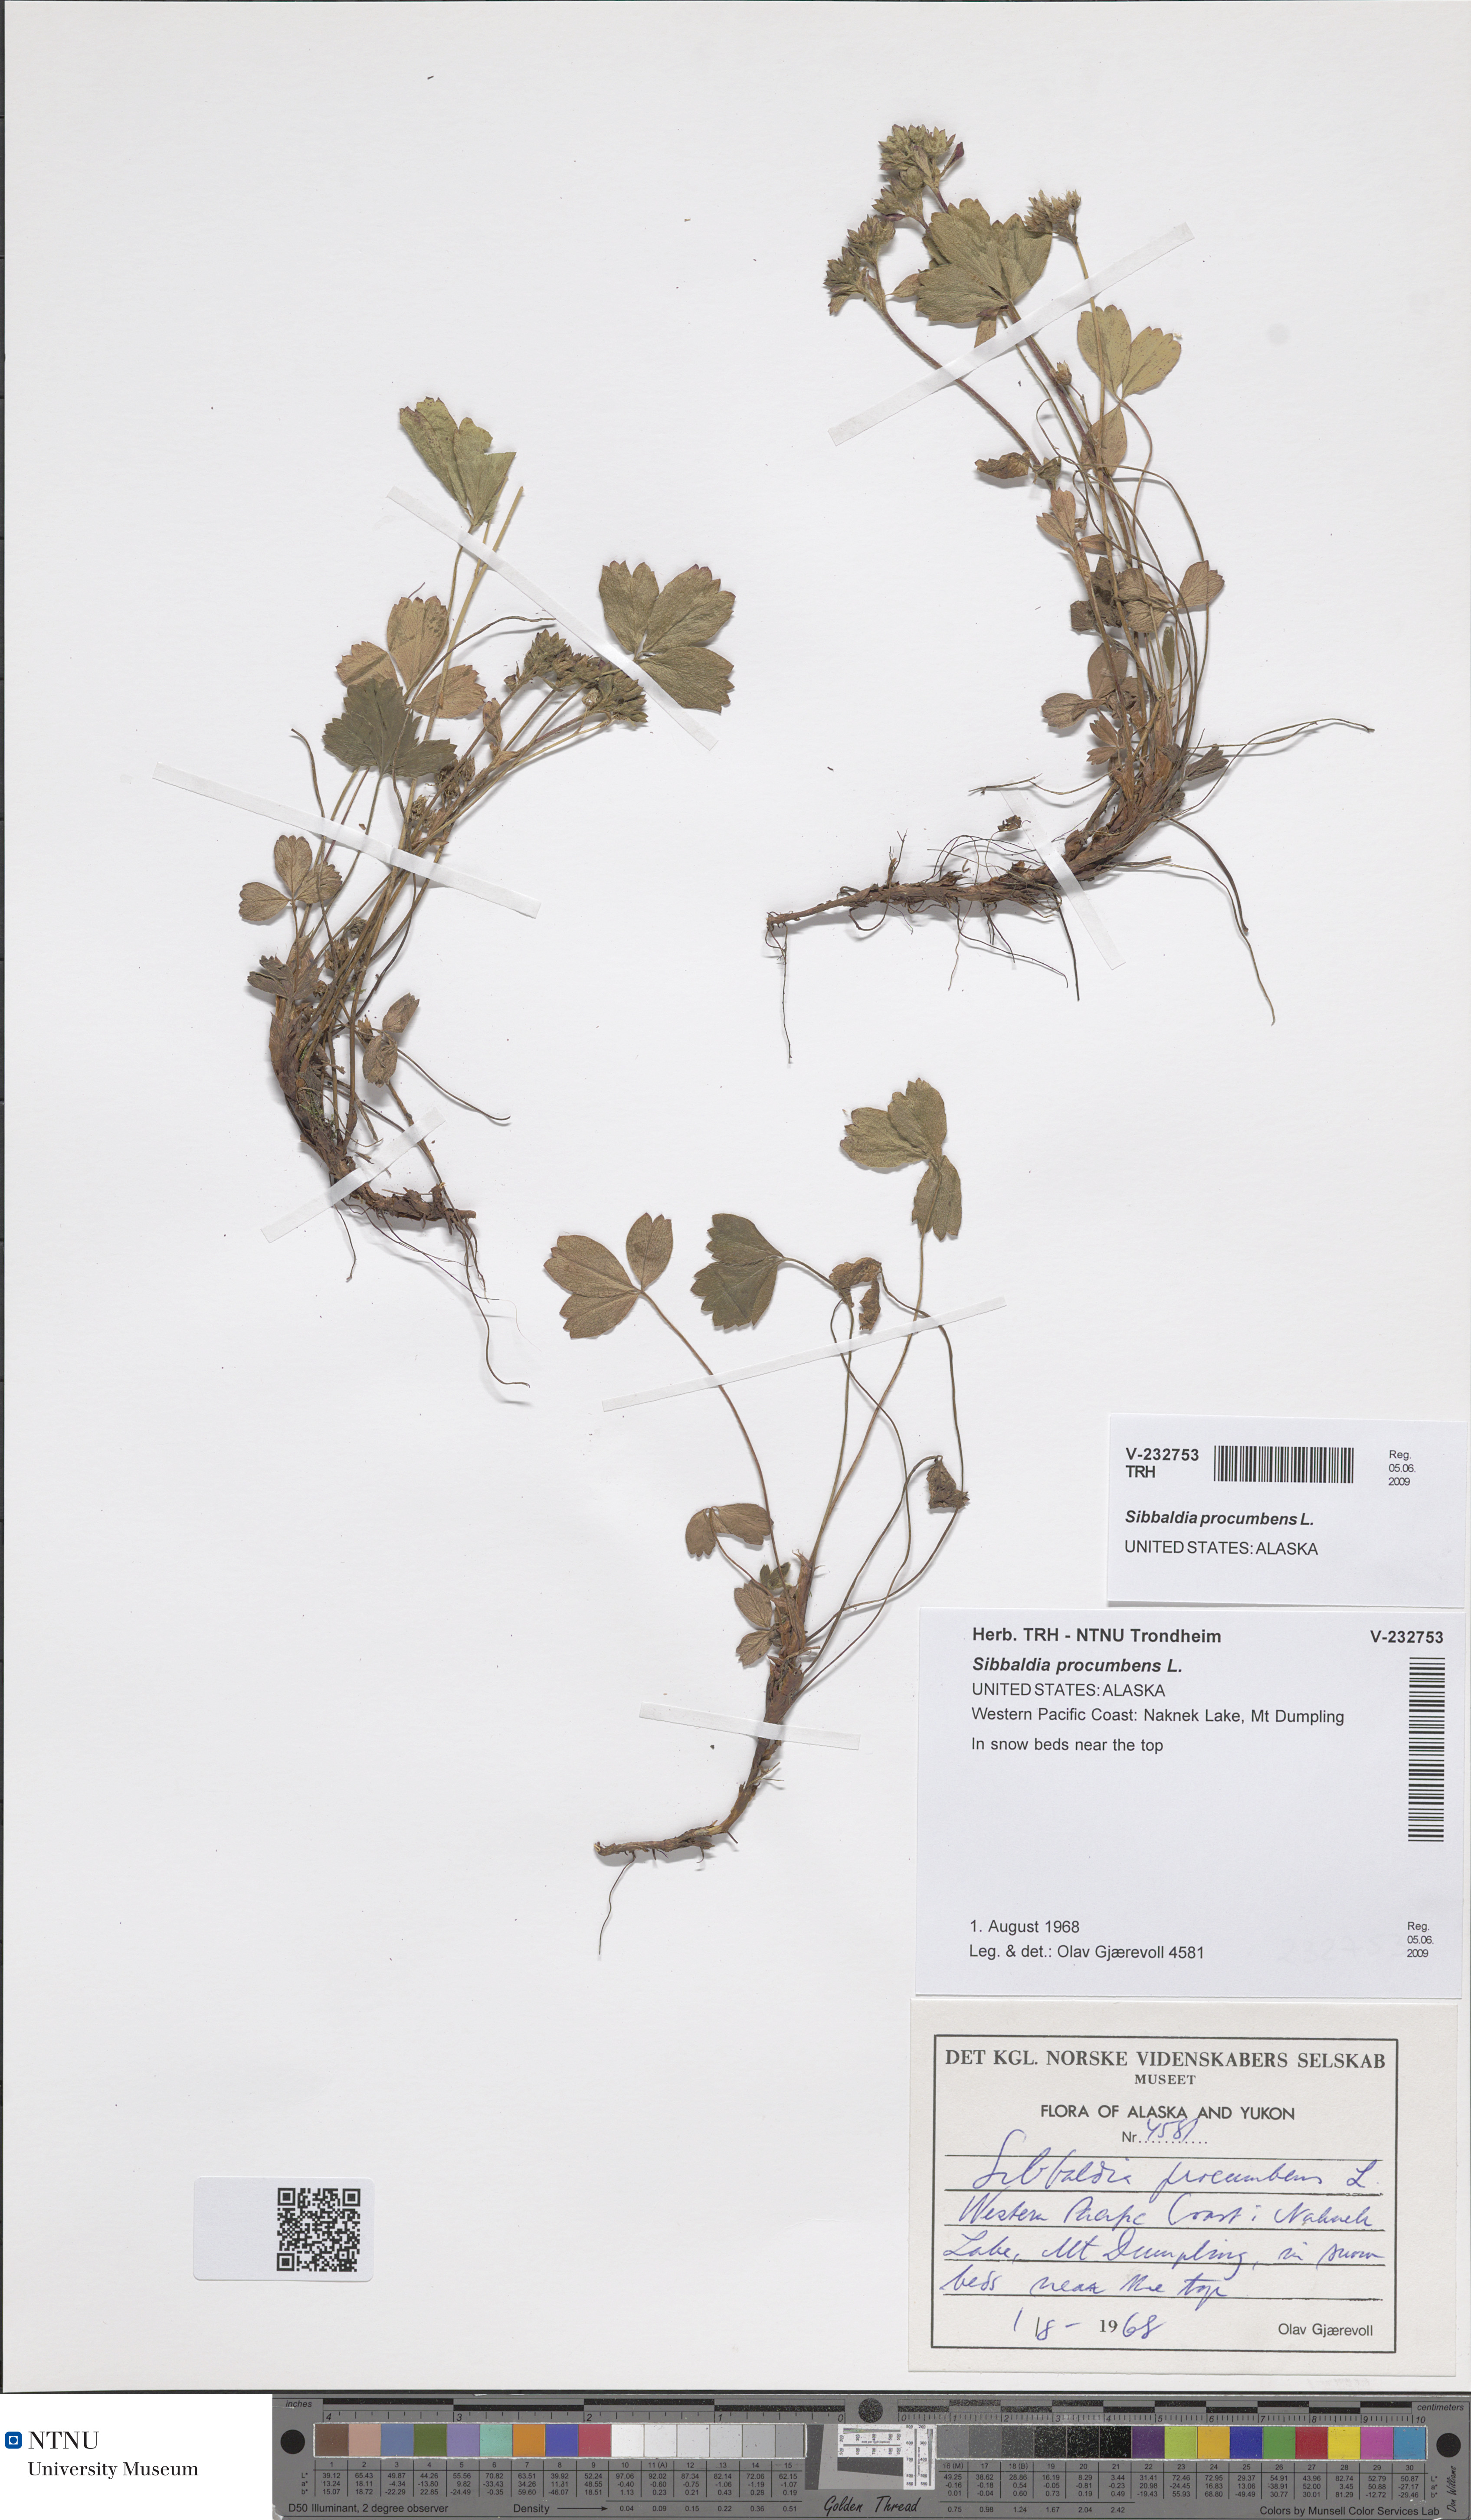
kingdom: Plantae
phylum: Tracheophyta
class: Magnoliopsida
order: Rosales
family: Rosaceae
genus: Sibbaldia
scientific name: Sibbaldia procumbens
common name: Creeping sibbaldia
